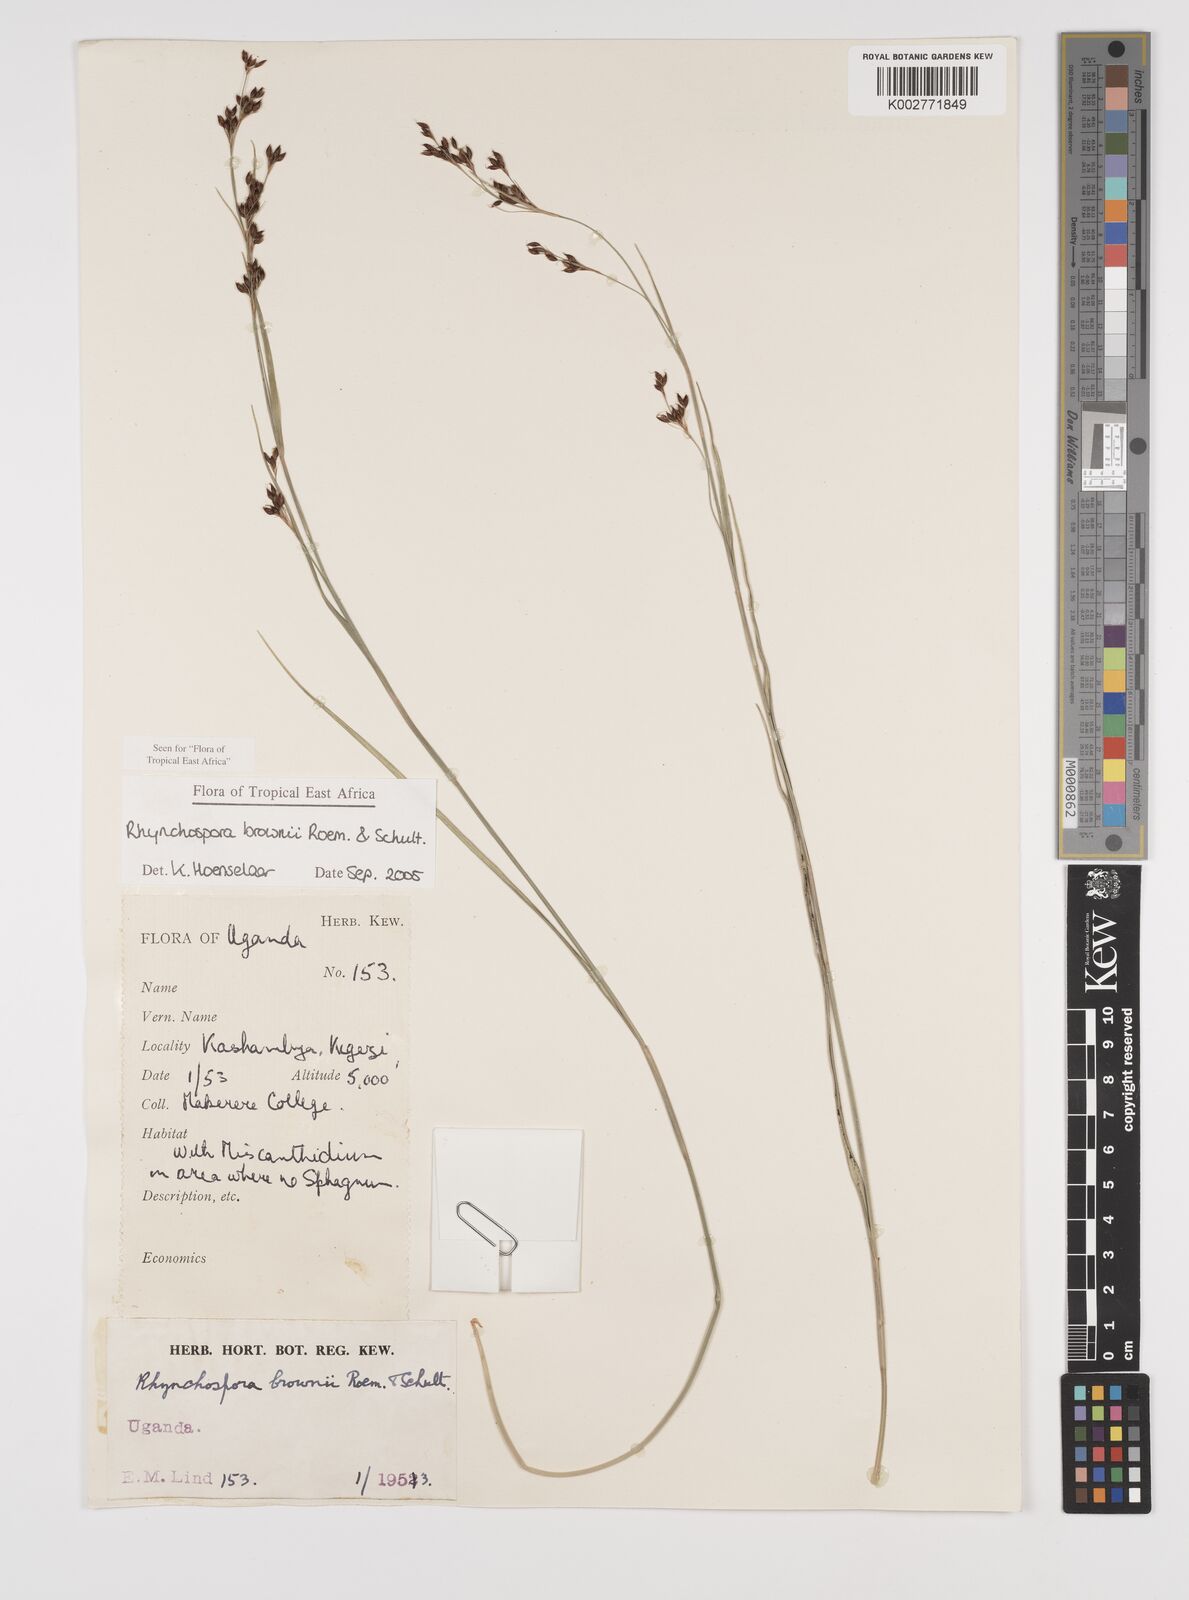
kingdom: Plantae
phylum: Tracheophyta
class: Liliopsida
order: Poales
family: Cyperaceae
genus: Rhynchospora
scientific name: Rhynchospora brownii
